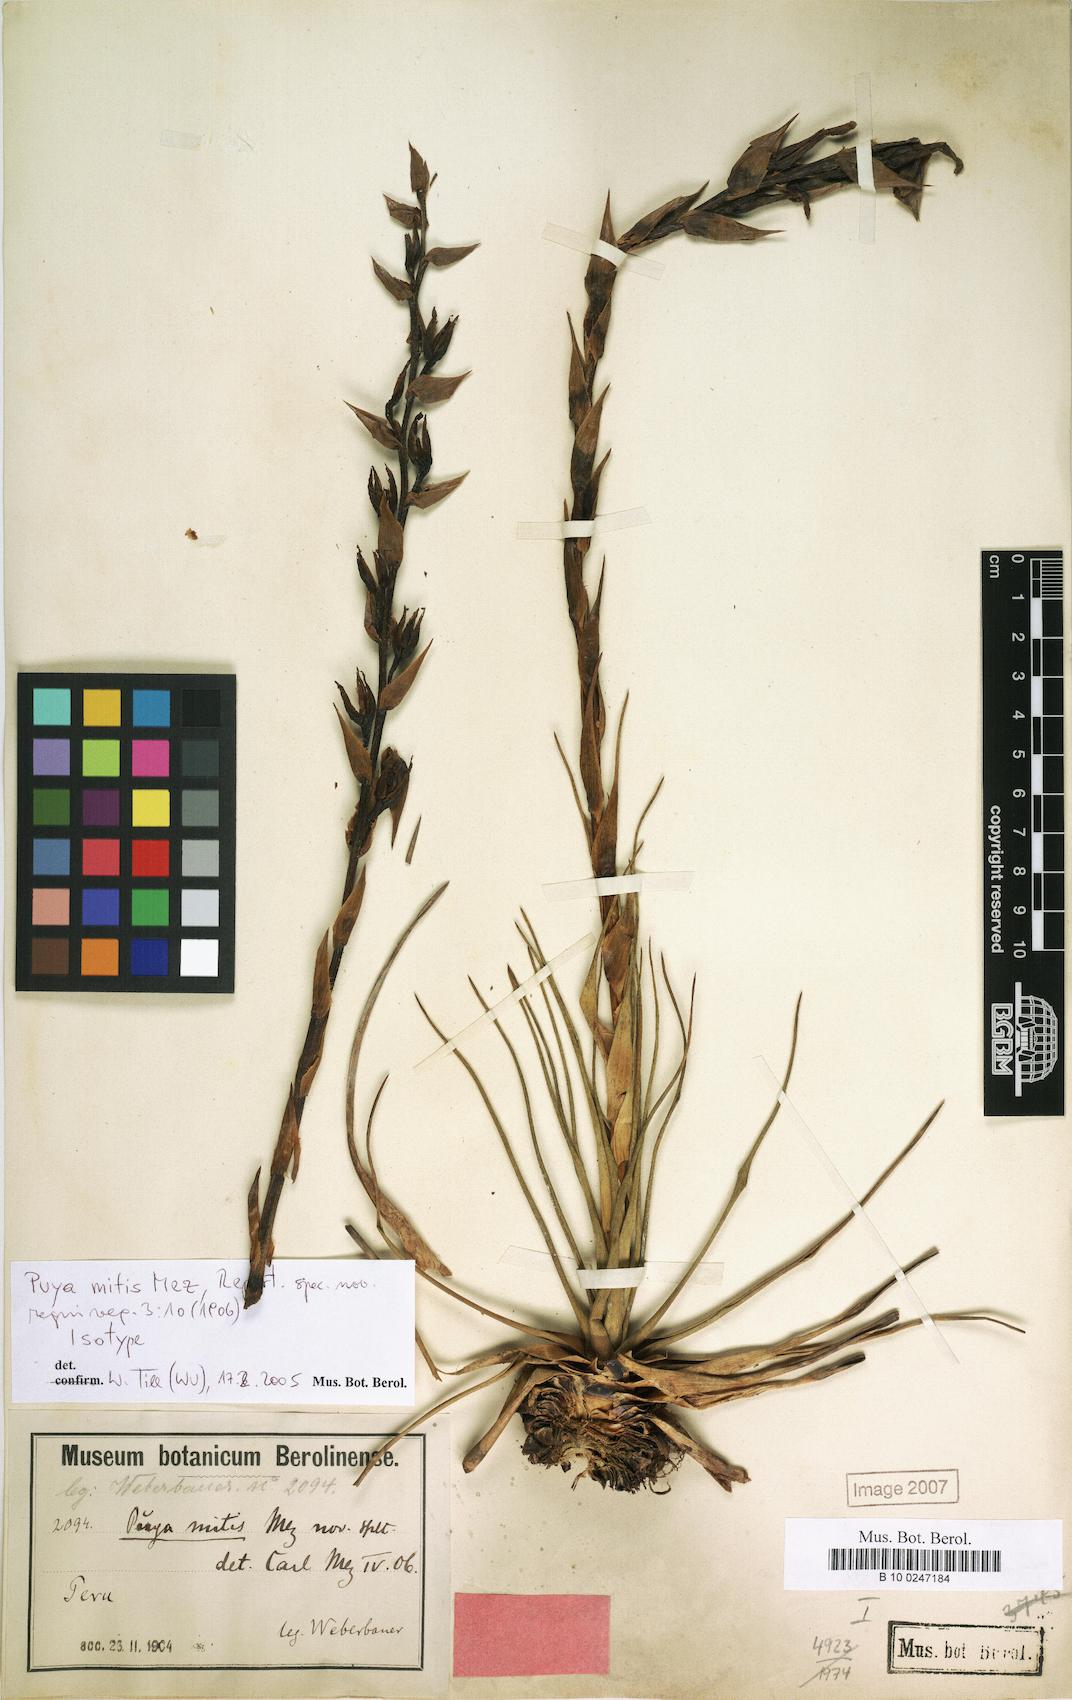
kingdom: Plantae
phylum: Tracheophyta
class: Liliopsida
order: Poales
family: Bromeliaceae
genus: Puya
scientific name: Puya mitis
